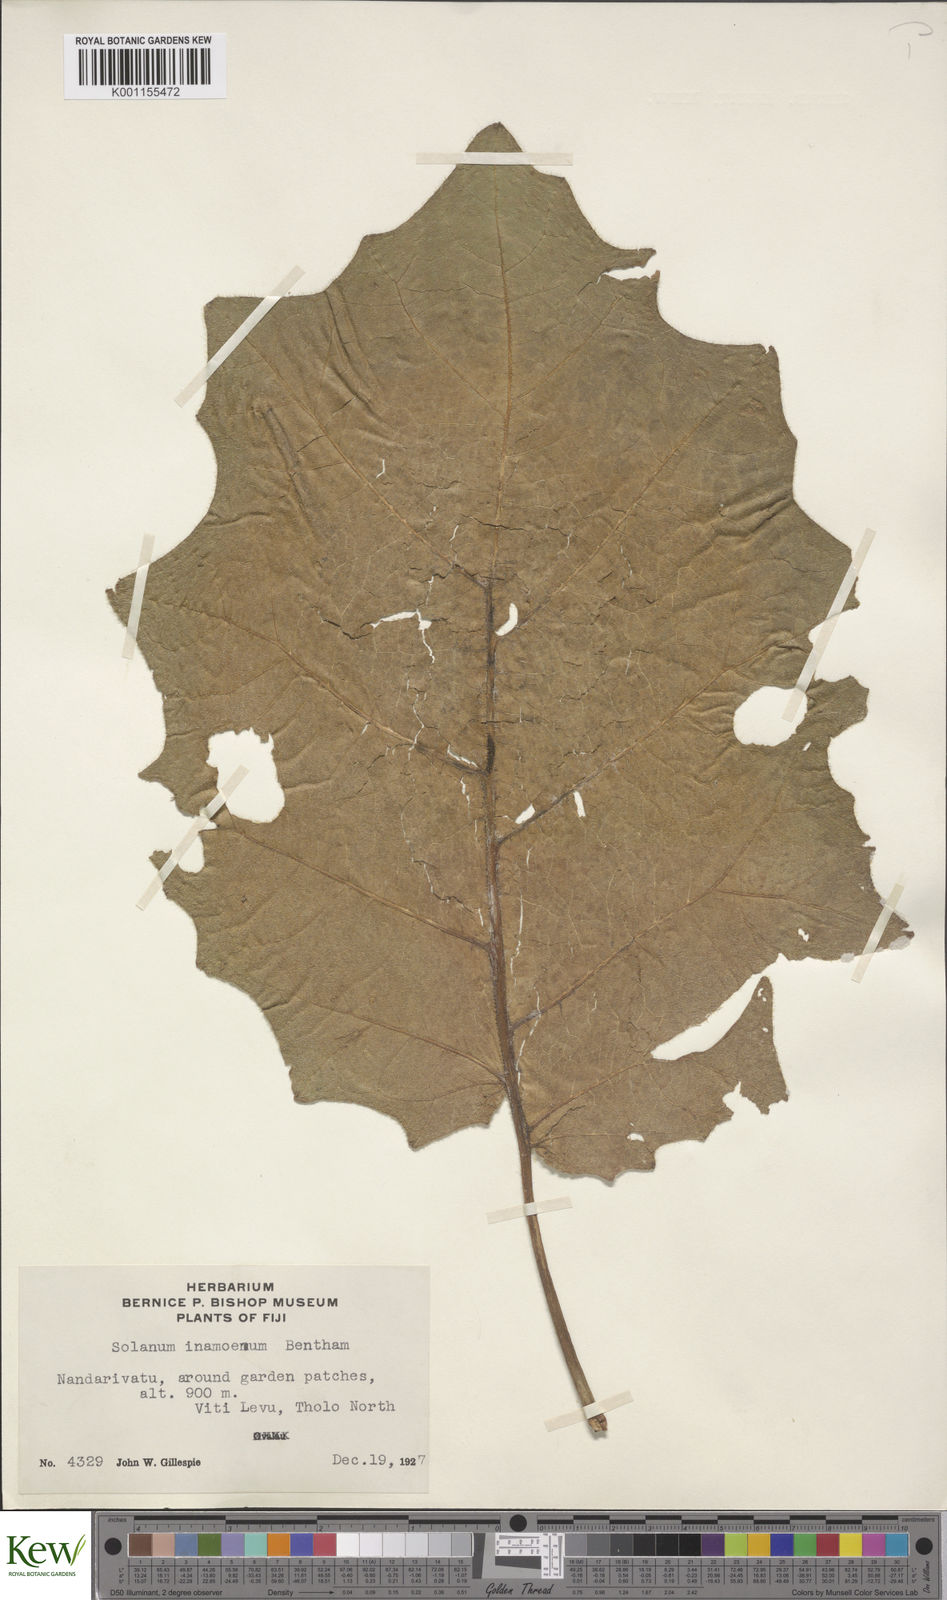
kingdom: Plantae
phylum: Tracheophyta
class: Magnoliopsida
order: Solanales
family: Solanaceae
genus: Solanum
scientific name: Solanum repandum
